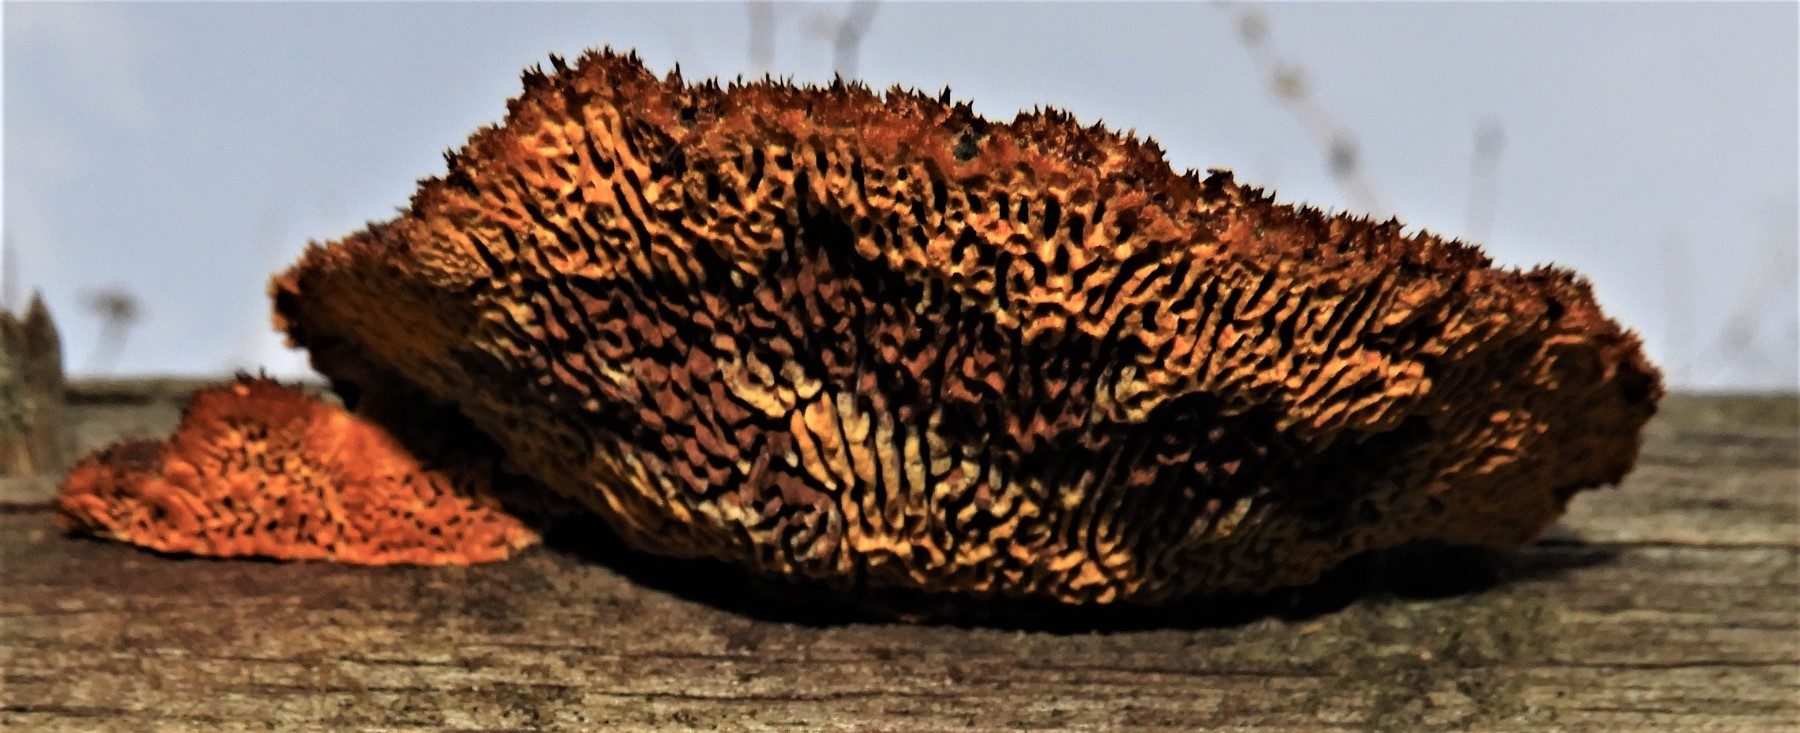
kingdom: Fungi
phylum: Basidiomycota
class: Agaricomycetes
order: Gloeophyllales
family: Gloeophyllaceae
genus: Gloeophyllum
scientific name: Gloeophyllum sepiarium
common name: fyrre-korkhat
